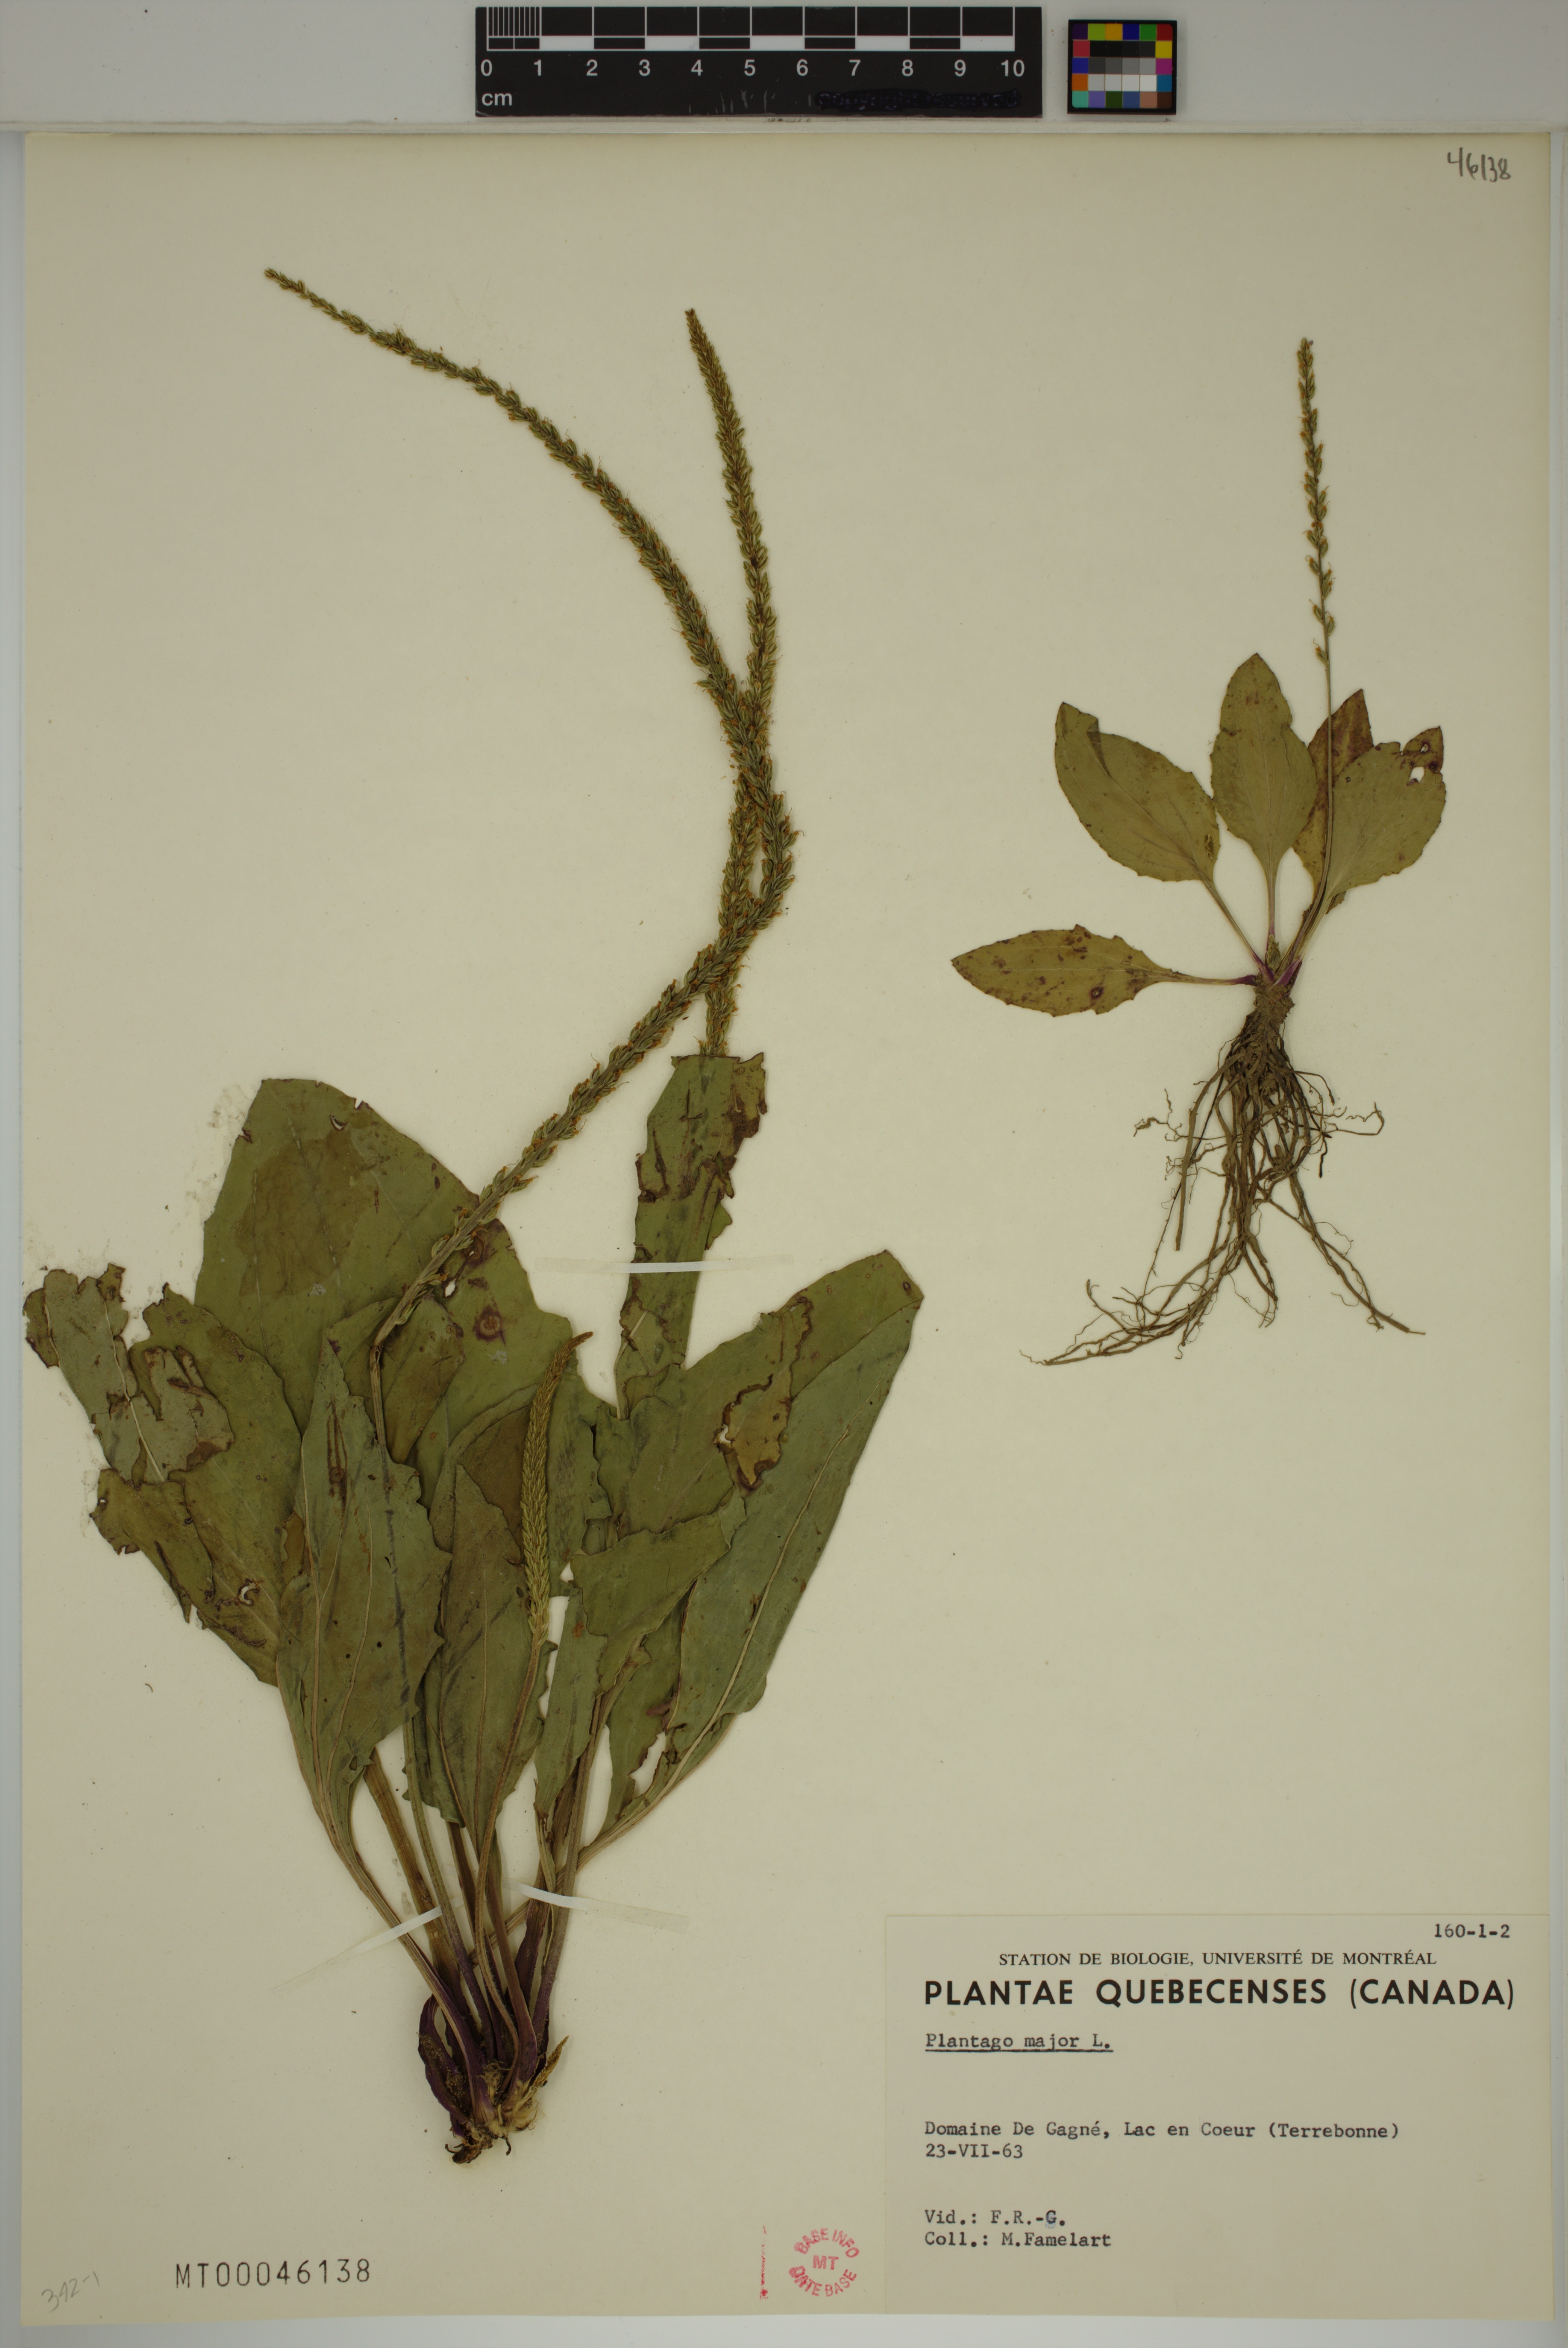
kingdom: Plantae
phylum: Tracheophyta
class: Magnoliopsida
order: Lamiales
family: Plantaginaceae
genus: Plantago
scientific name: Plantago major
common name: Common plantain
